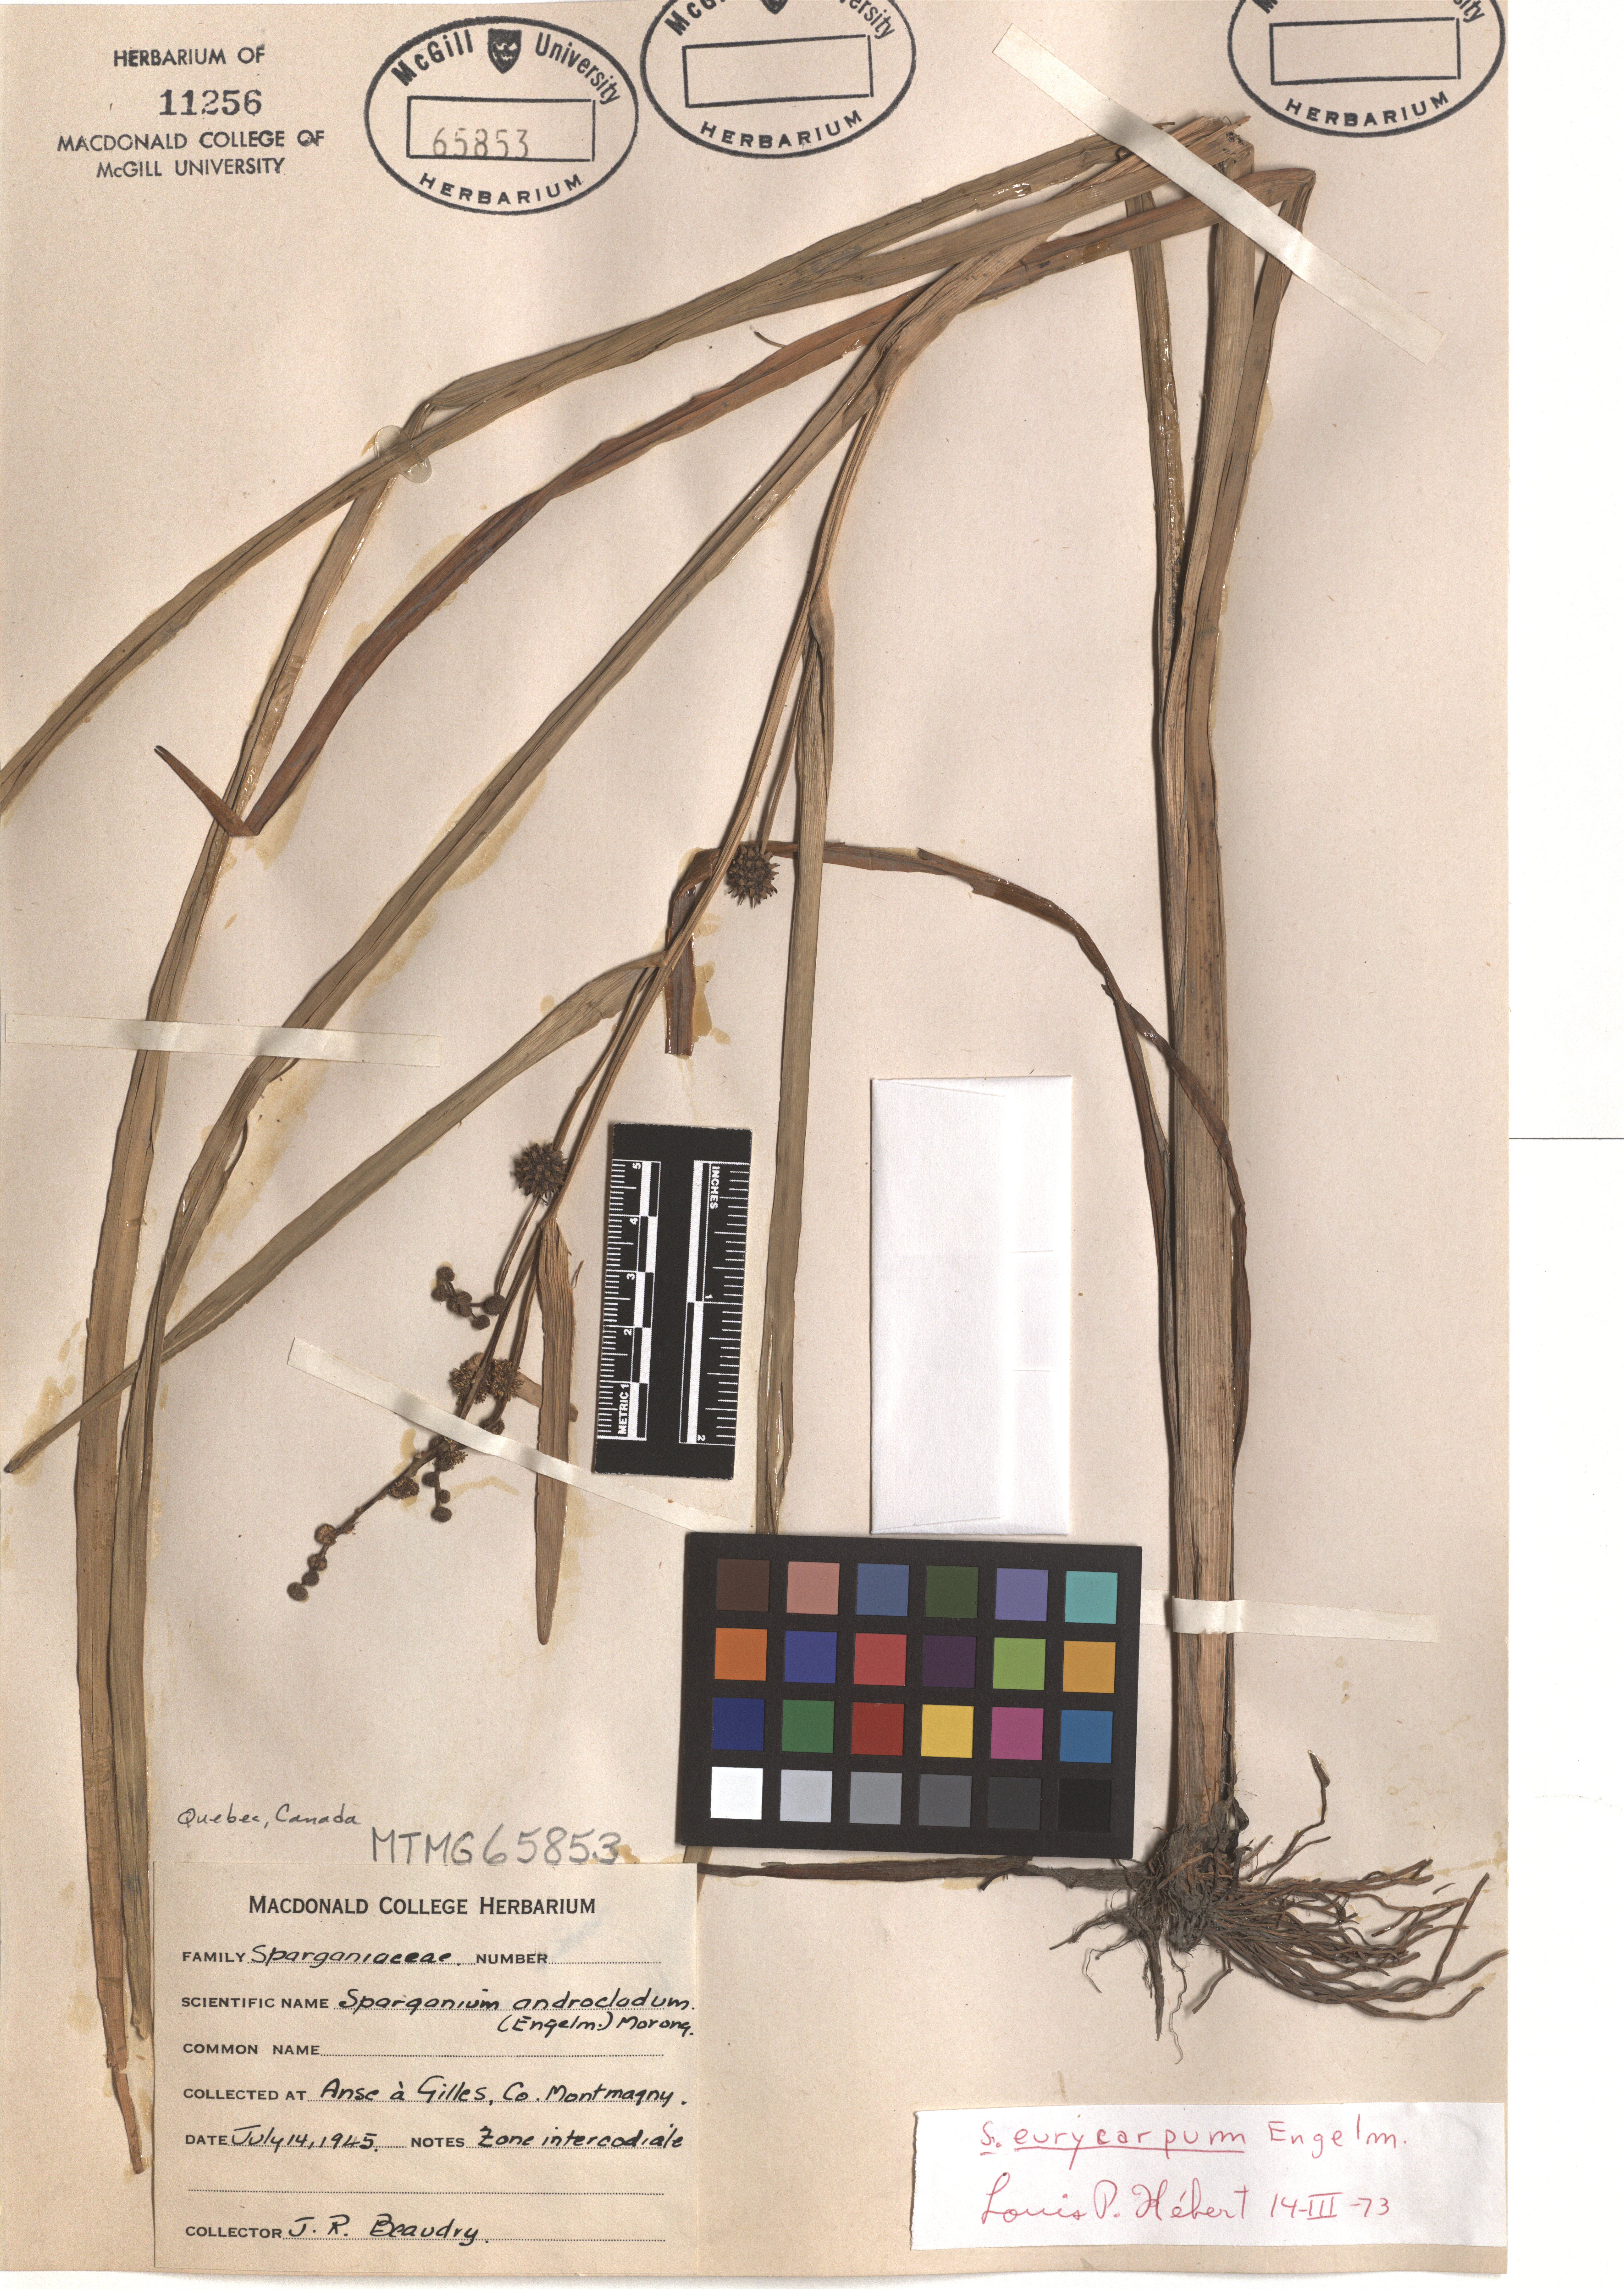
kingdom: Plantae
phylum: Tracheophyta
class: Liliopsida
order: Poales
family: Typhaceae
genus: Sparganium
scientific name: Sparganium eurycarpum
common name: Broad-fruited burreed
